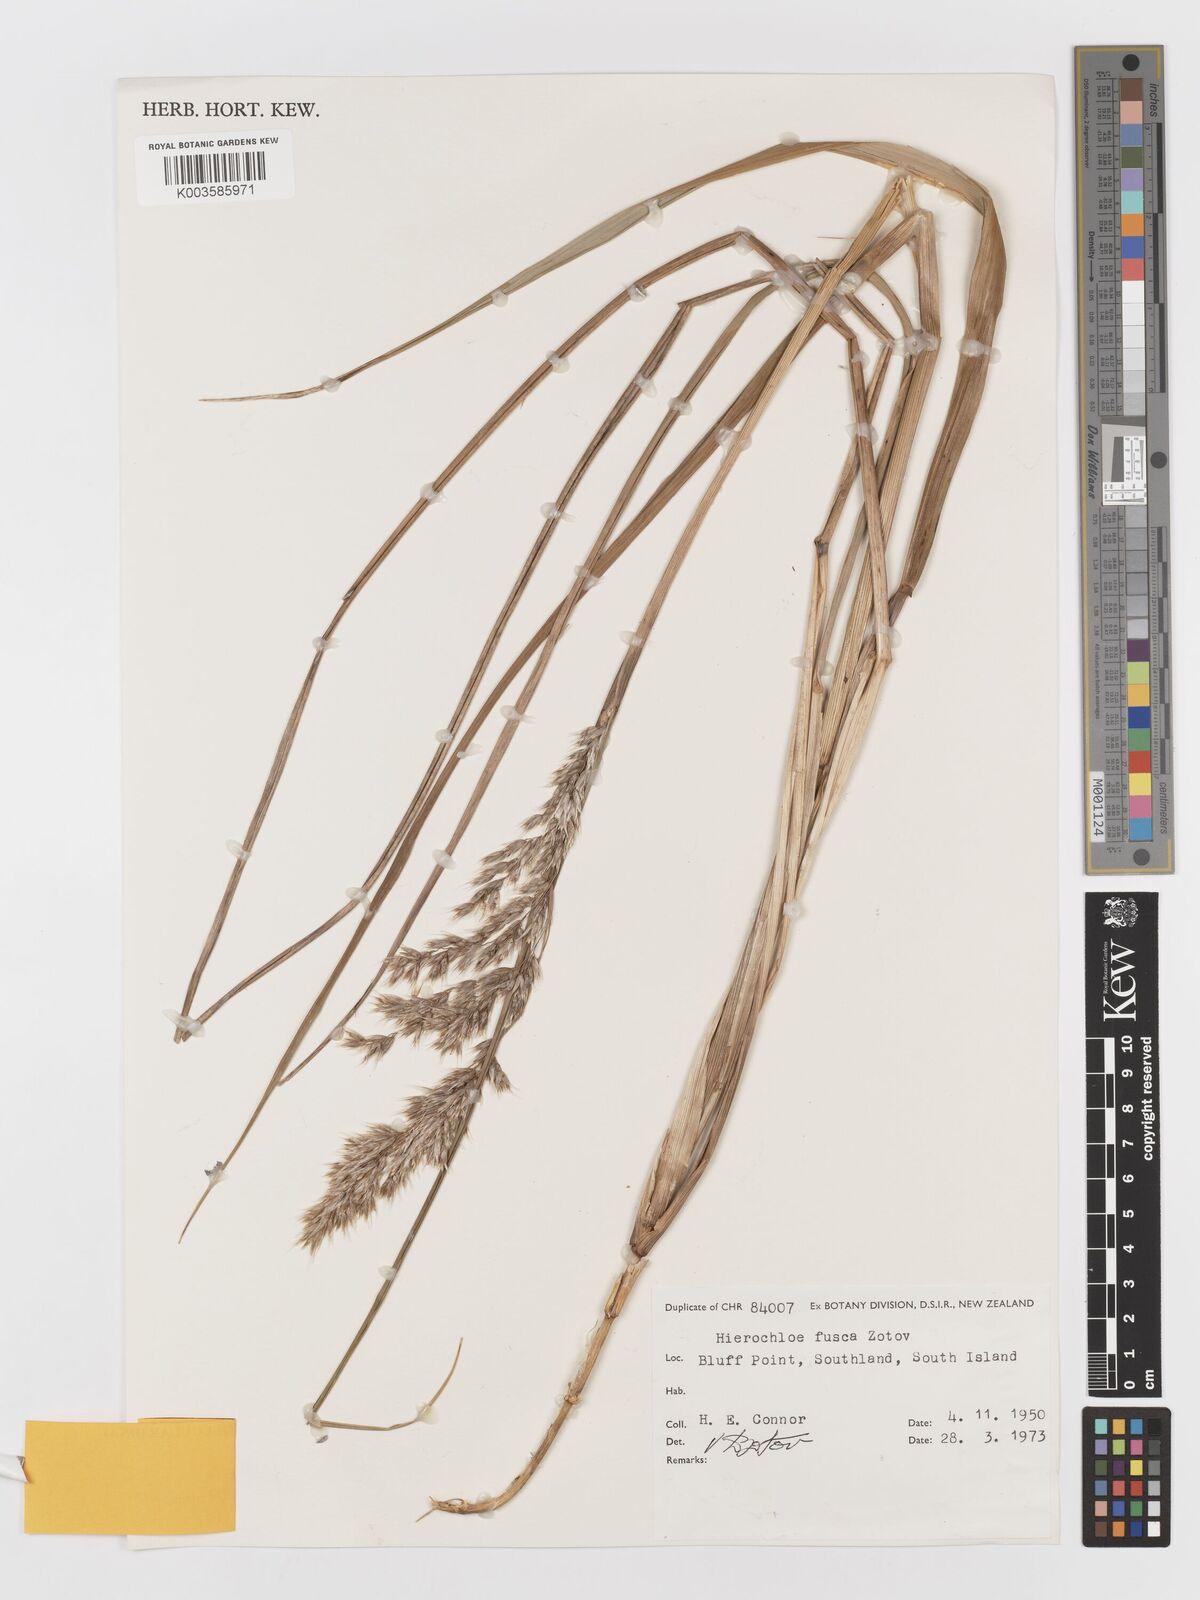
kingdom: Plantae
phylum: Tracheophyta
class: Liliopsida
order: Poales
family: Poaceae
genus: Anthoxanthum
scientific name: Anthoxanthum fuscum
